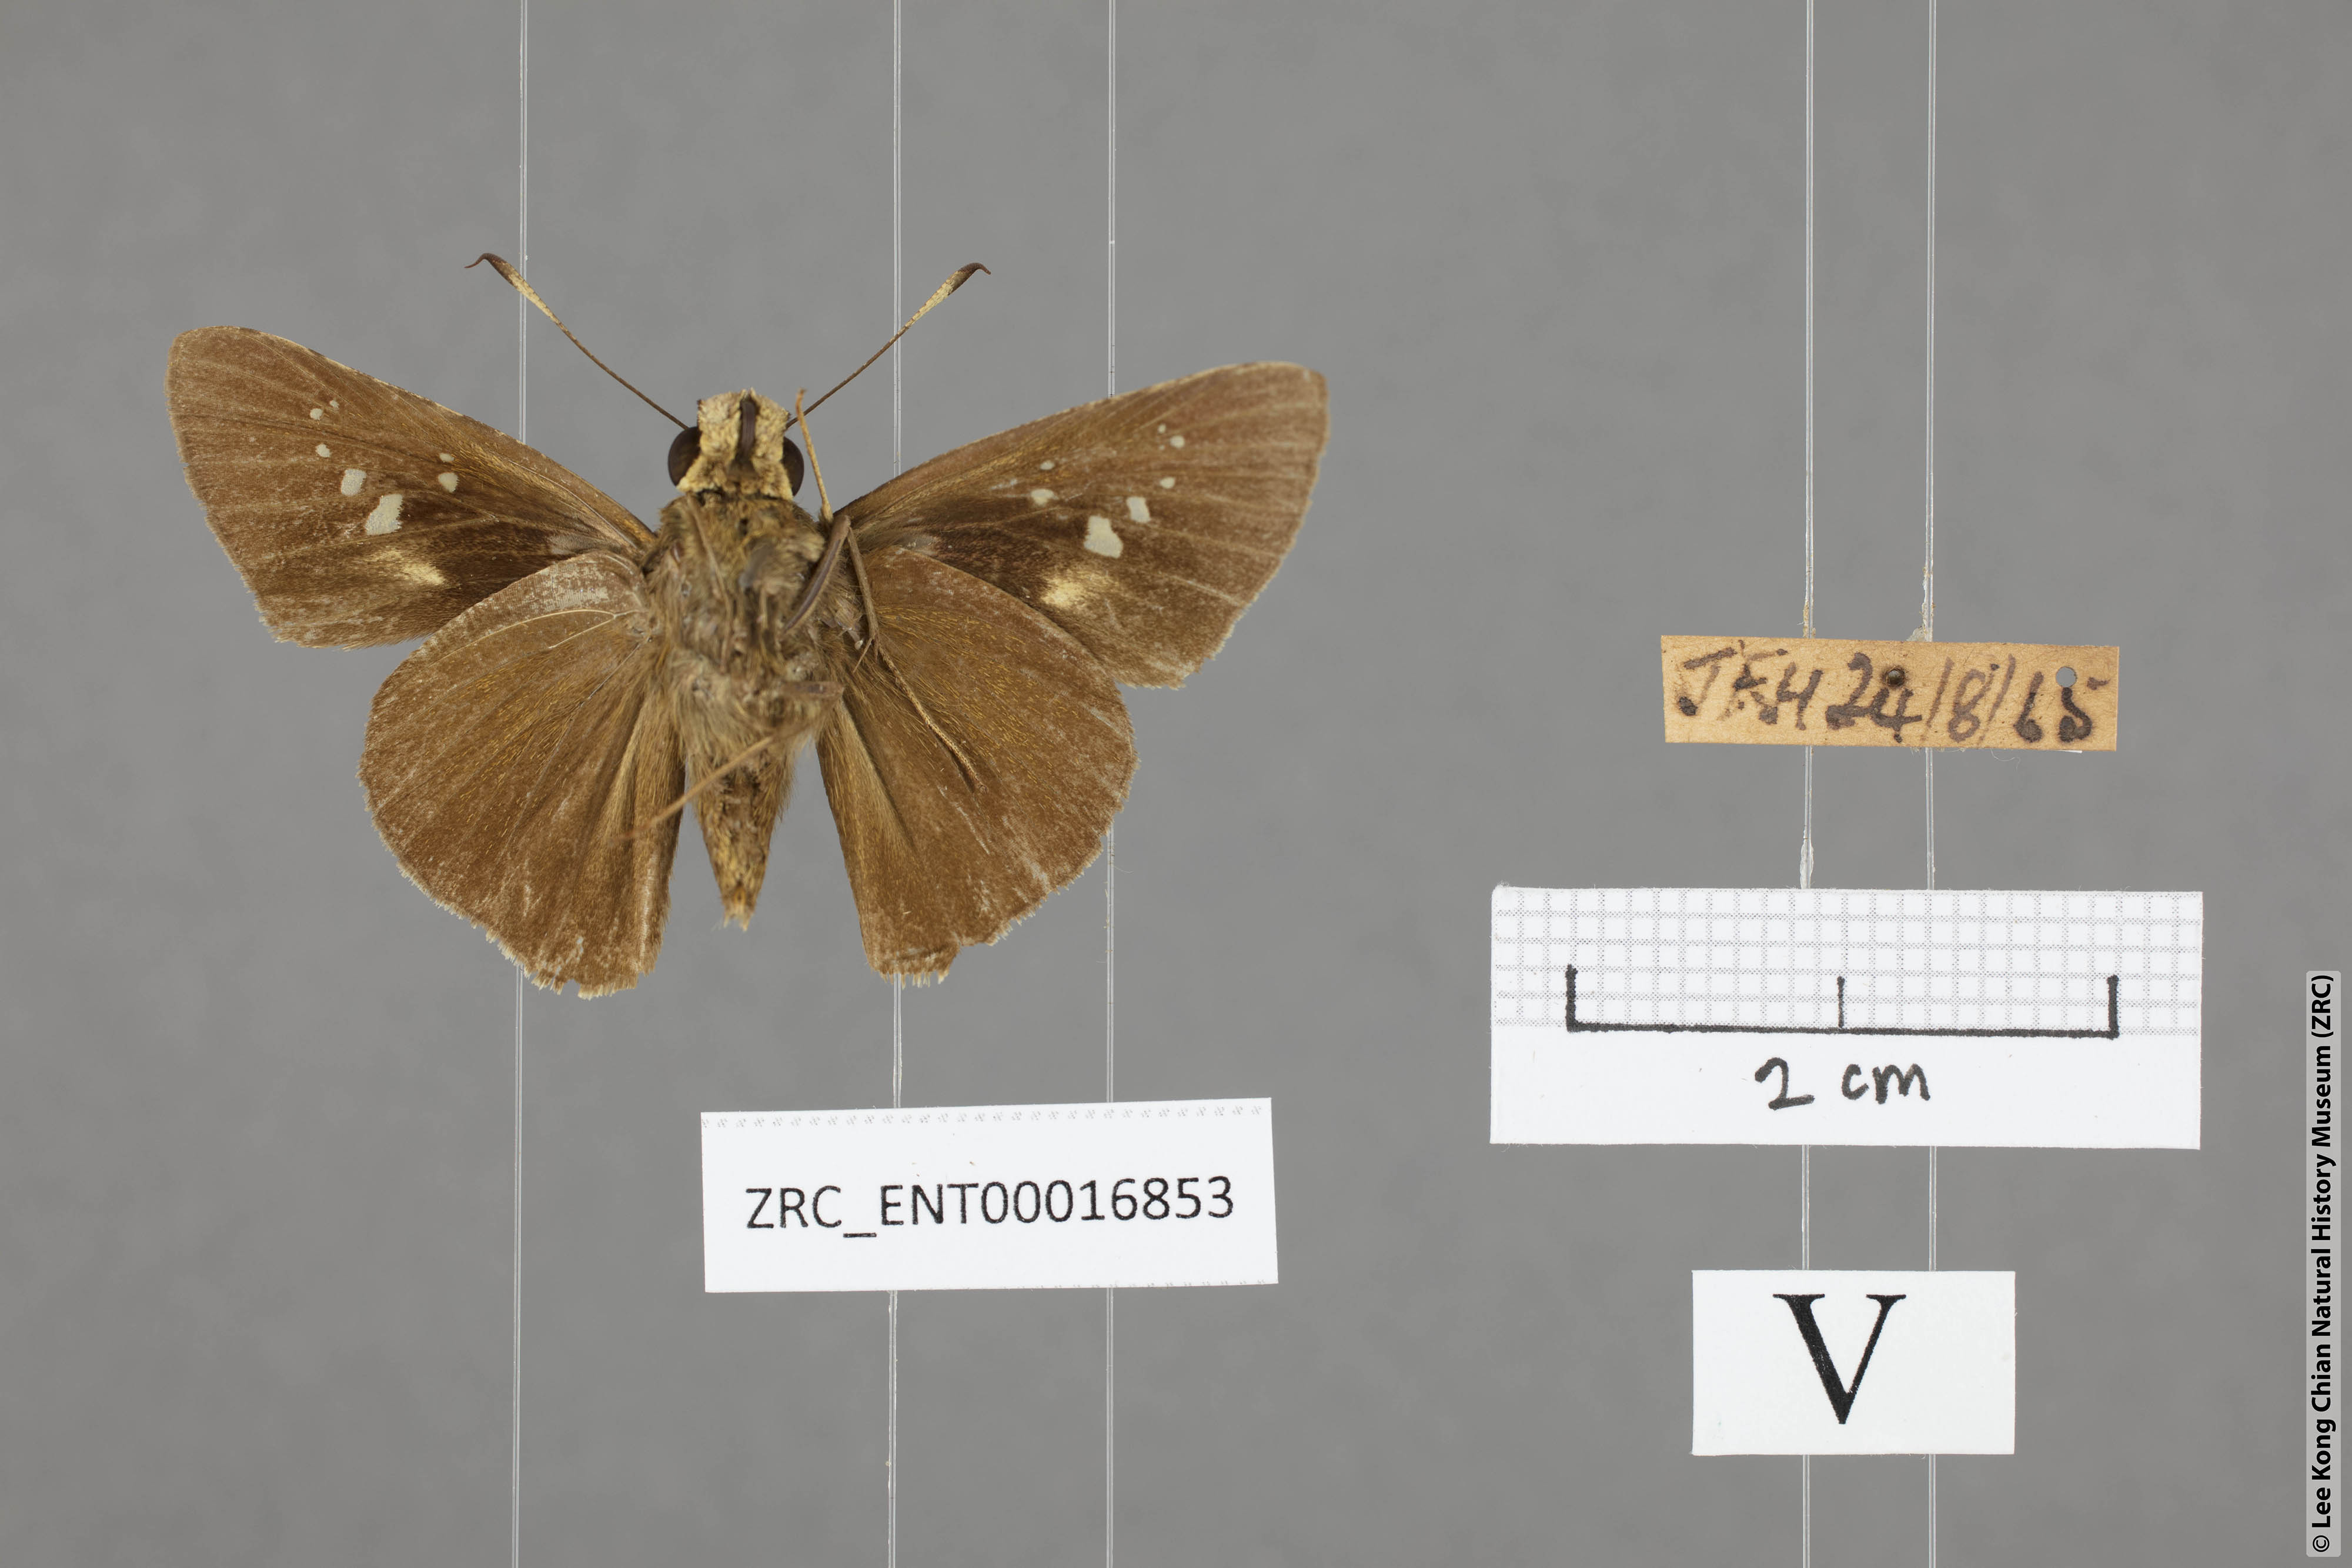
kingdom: Animalia
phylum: Arthropoda
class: Insecta
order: Lepidoptera
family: Hesperiidae
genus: Caltoris
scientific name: Caltoris sirius
